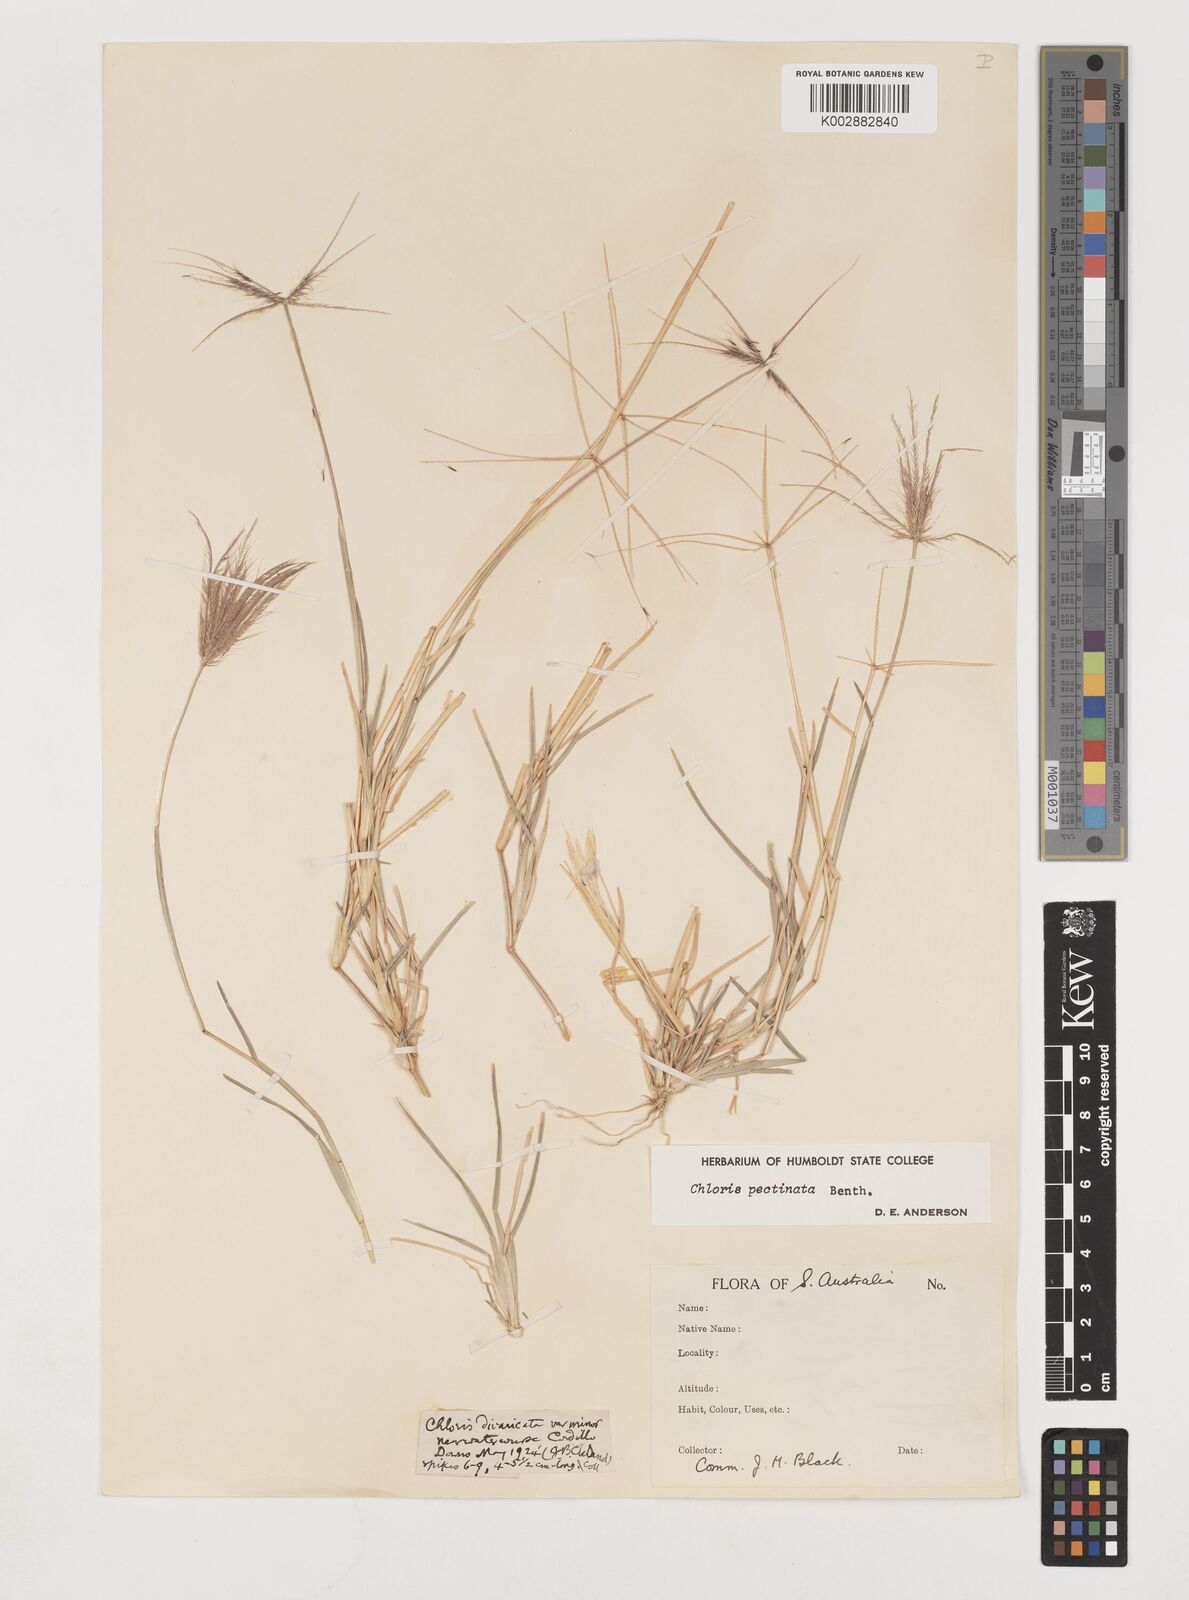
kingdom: Plantae
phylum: Tracheophyta
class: Liliopsida
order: Poales
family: Poaceae
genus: Chloris
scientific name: Chloris pectinata
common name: Comb windmill grass
